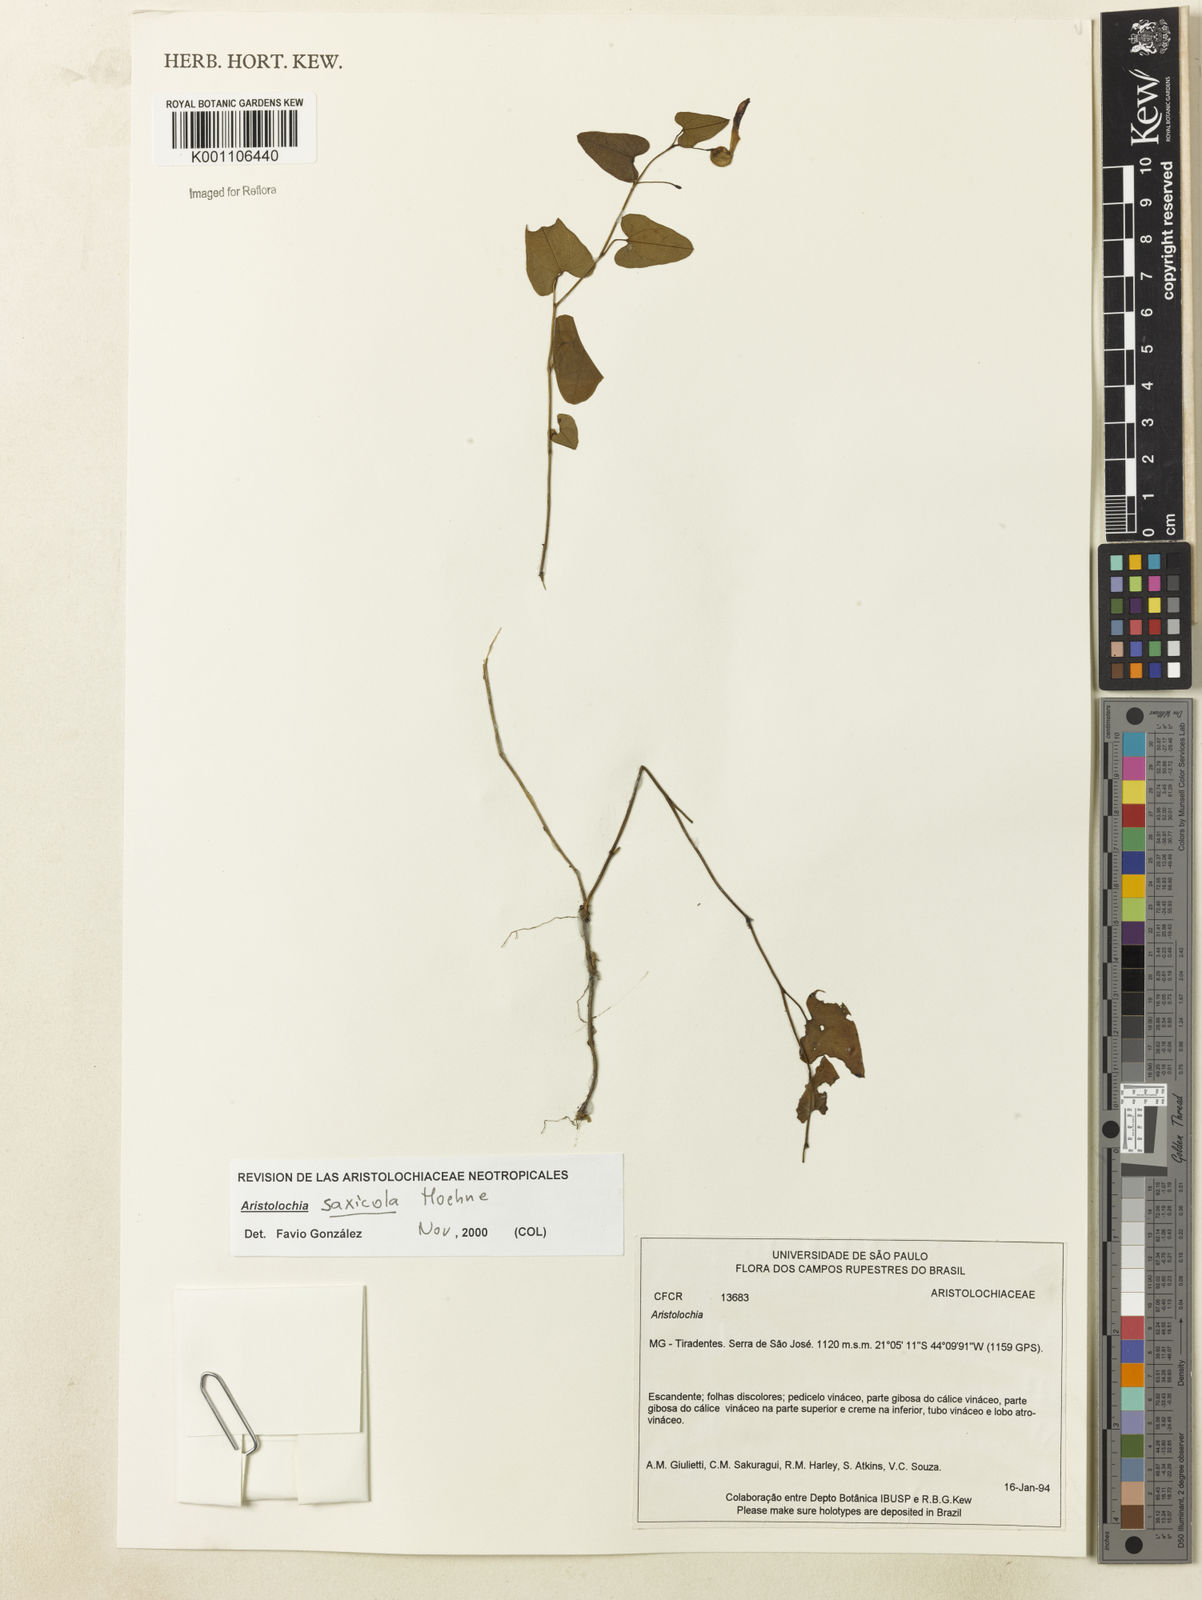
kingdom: Plantae
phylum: Tracheophyta
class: Magnoliopsida
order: Piperales
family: Aristolochiaceae
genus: Aristolochia
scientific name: Aristolochia smilacina
